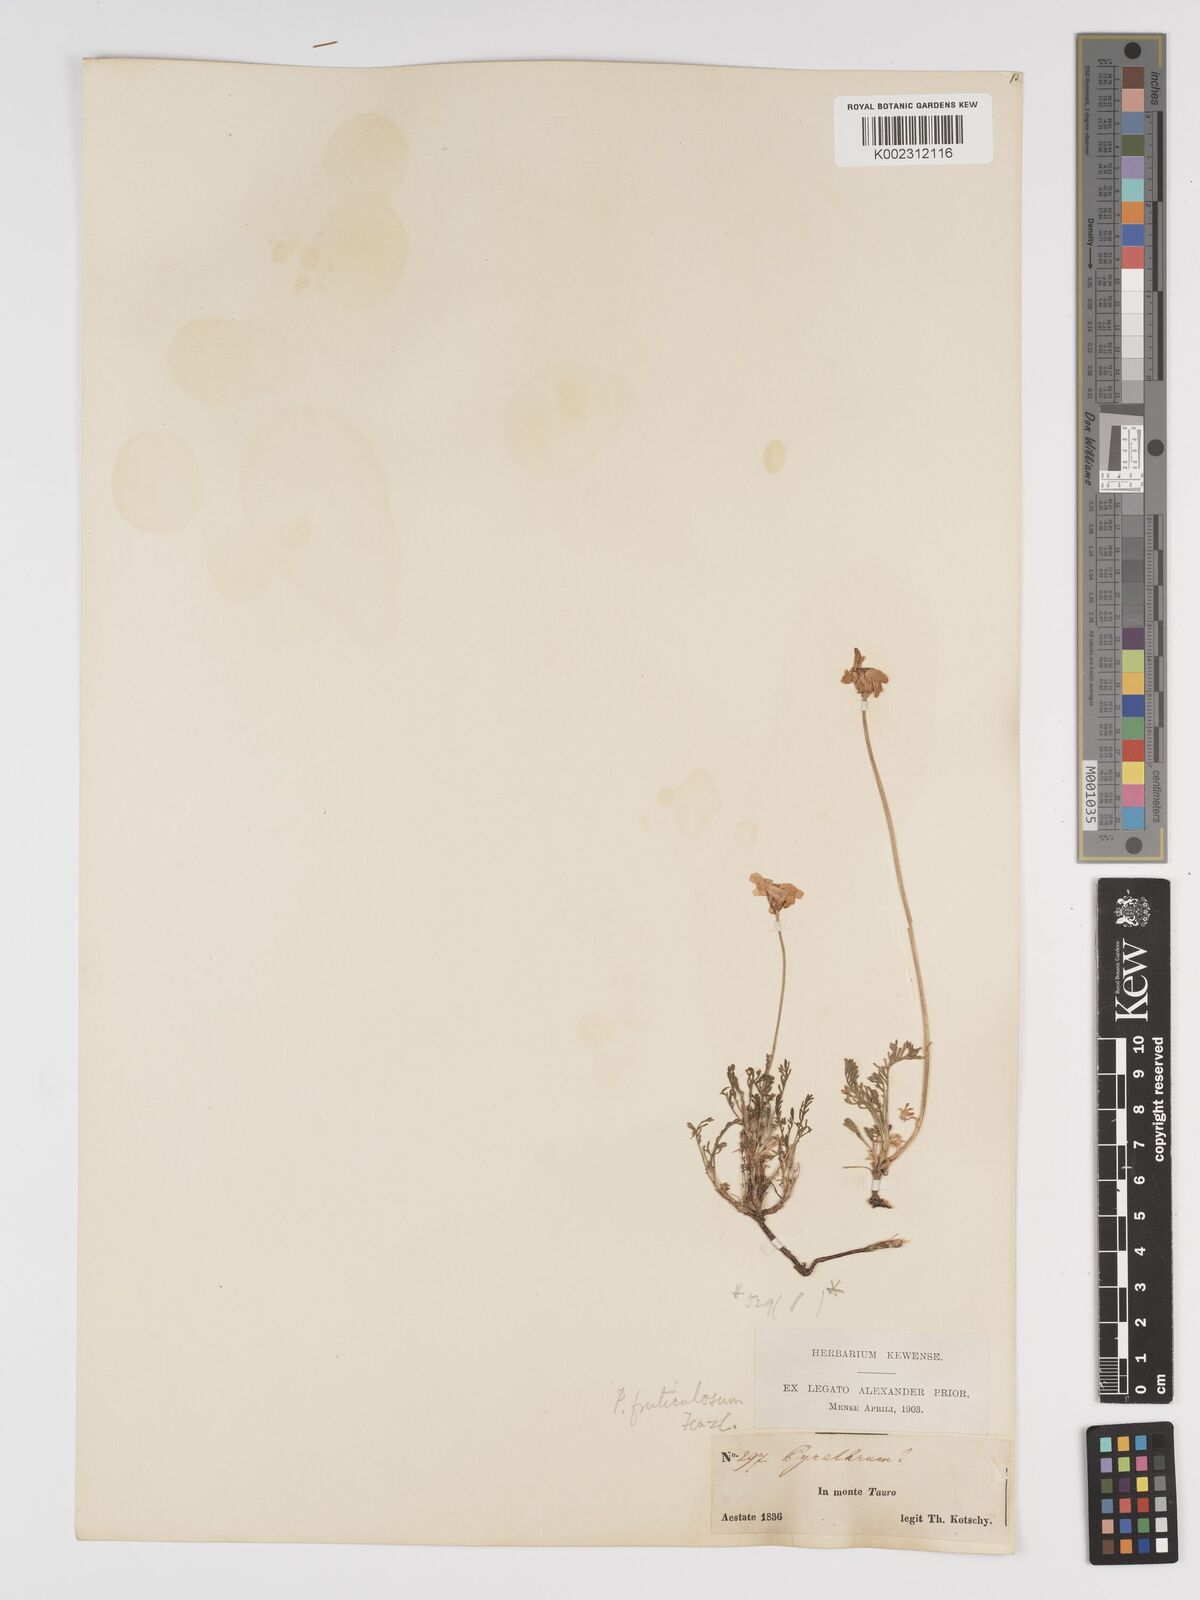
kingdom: Plantae
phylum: Tracheophyta
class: Magnoliopsida
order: Asterales
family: Asteraceae
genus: Ajania
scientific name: Ajania fruticulosa
